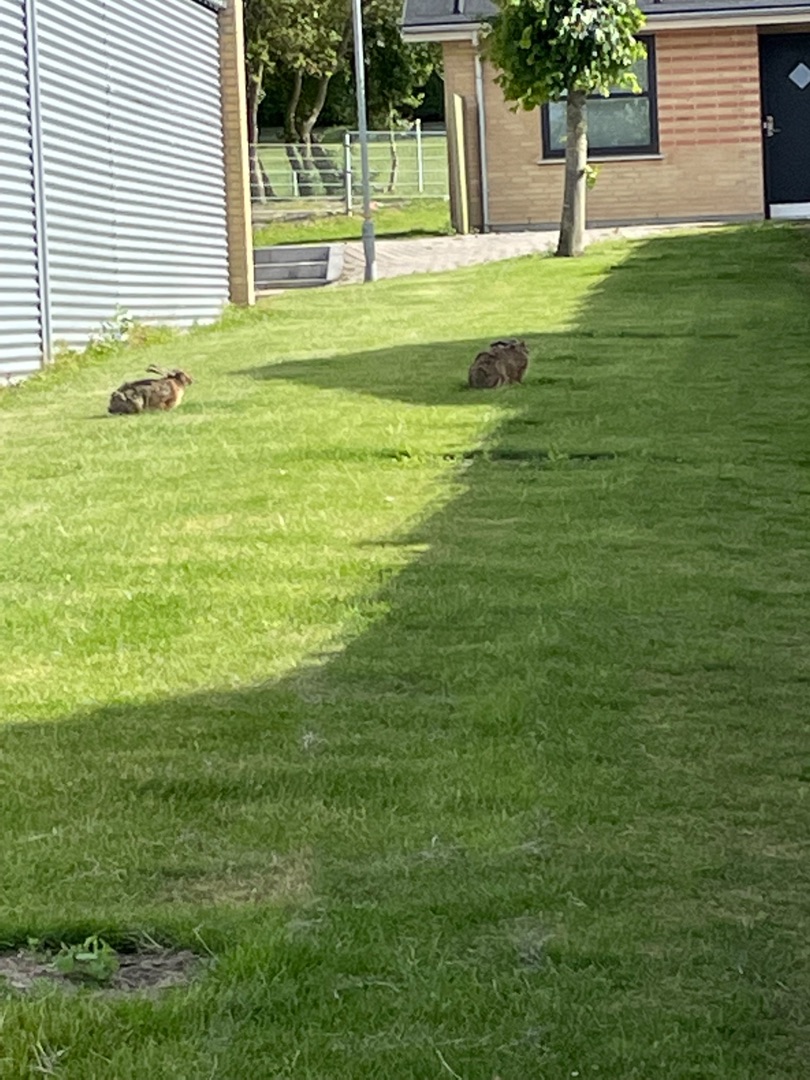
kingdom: Animalia
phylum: Chordata
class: Mammalia
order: Lagomorpha
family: Leporidae
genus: Lepus
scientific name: Lepus europaeus
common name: Hare
